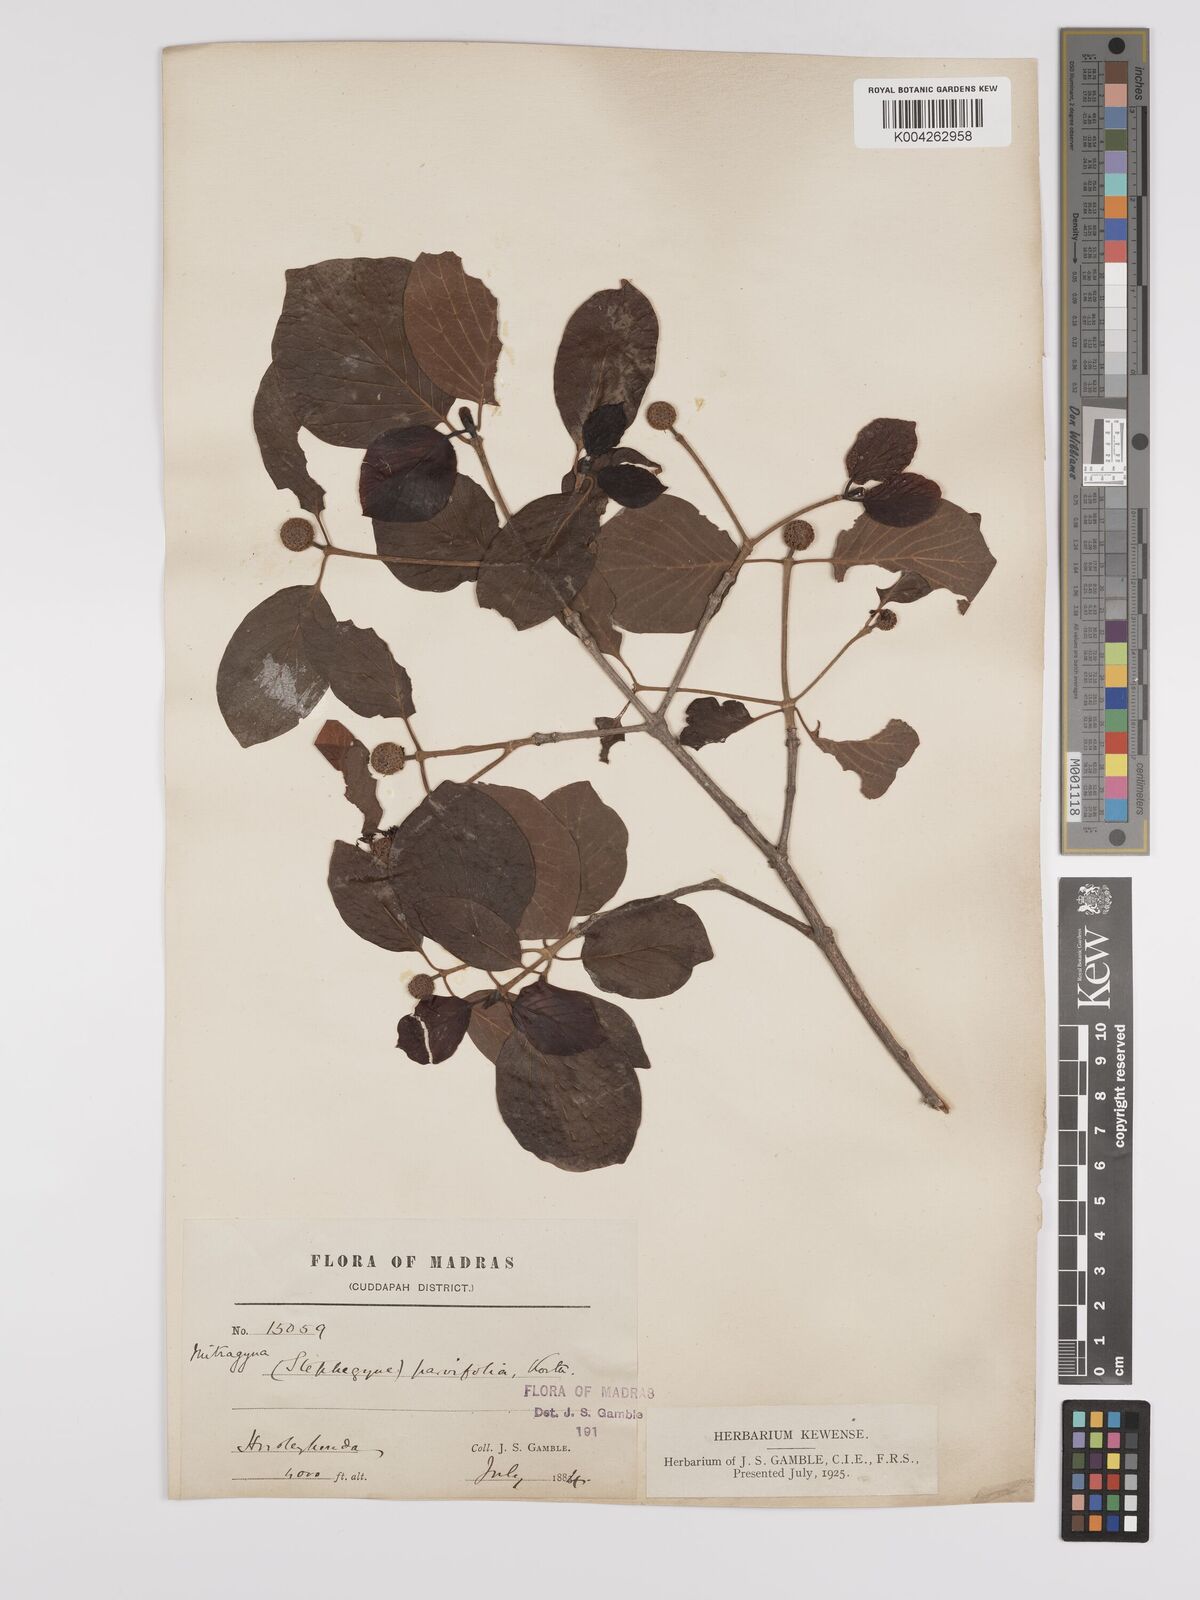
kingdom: Plantae
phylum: Tracheophyta
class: Magnoliopsida
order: Gentianales
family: Rubiaceae
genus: Mitragyna
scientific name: Mitragyna parvifolia
